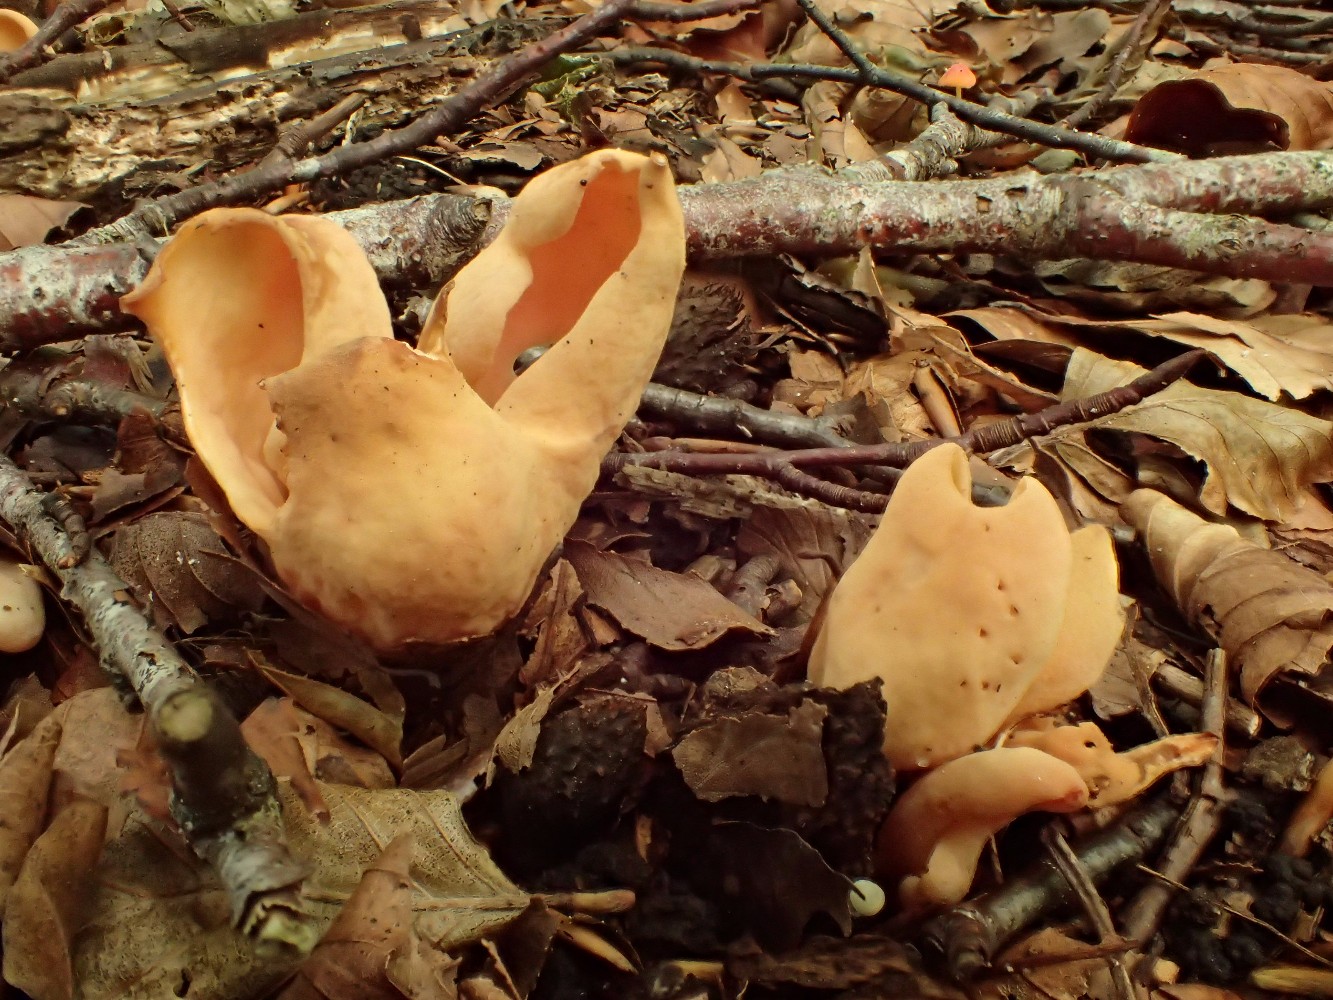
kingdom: Fungi
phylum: Ascomycota
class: Pezizomycetes
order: Pezizales
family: Otideaceae
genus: Otidea
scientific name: Otidea onotica
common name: æsel-ørebæger
